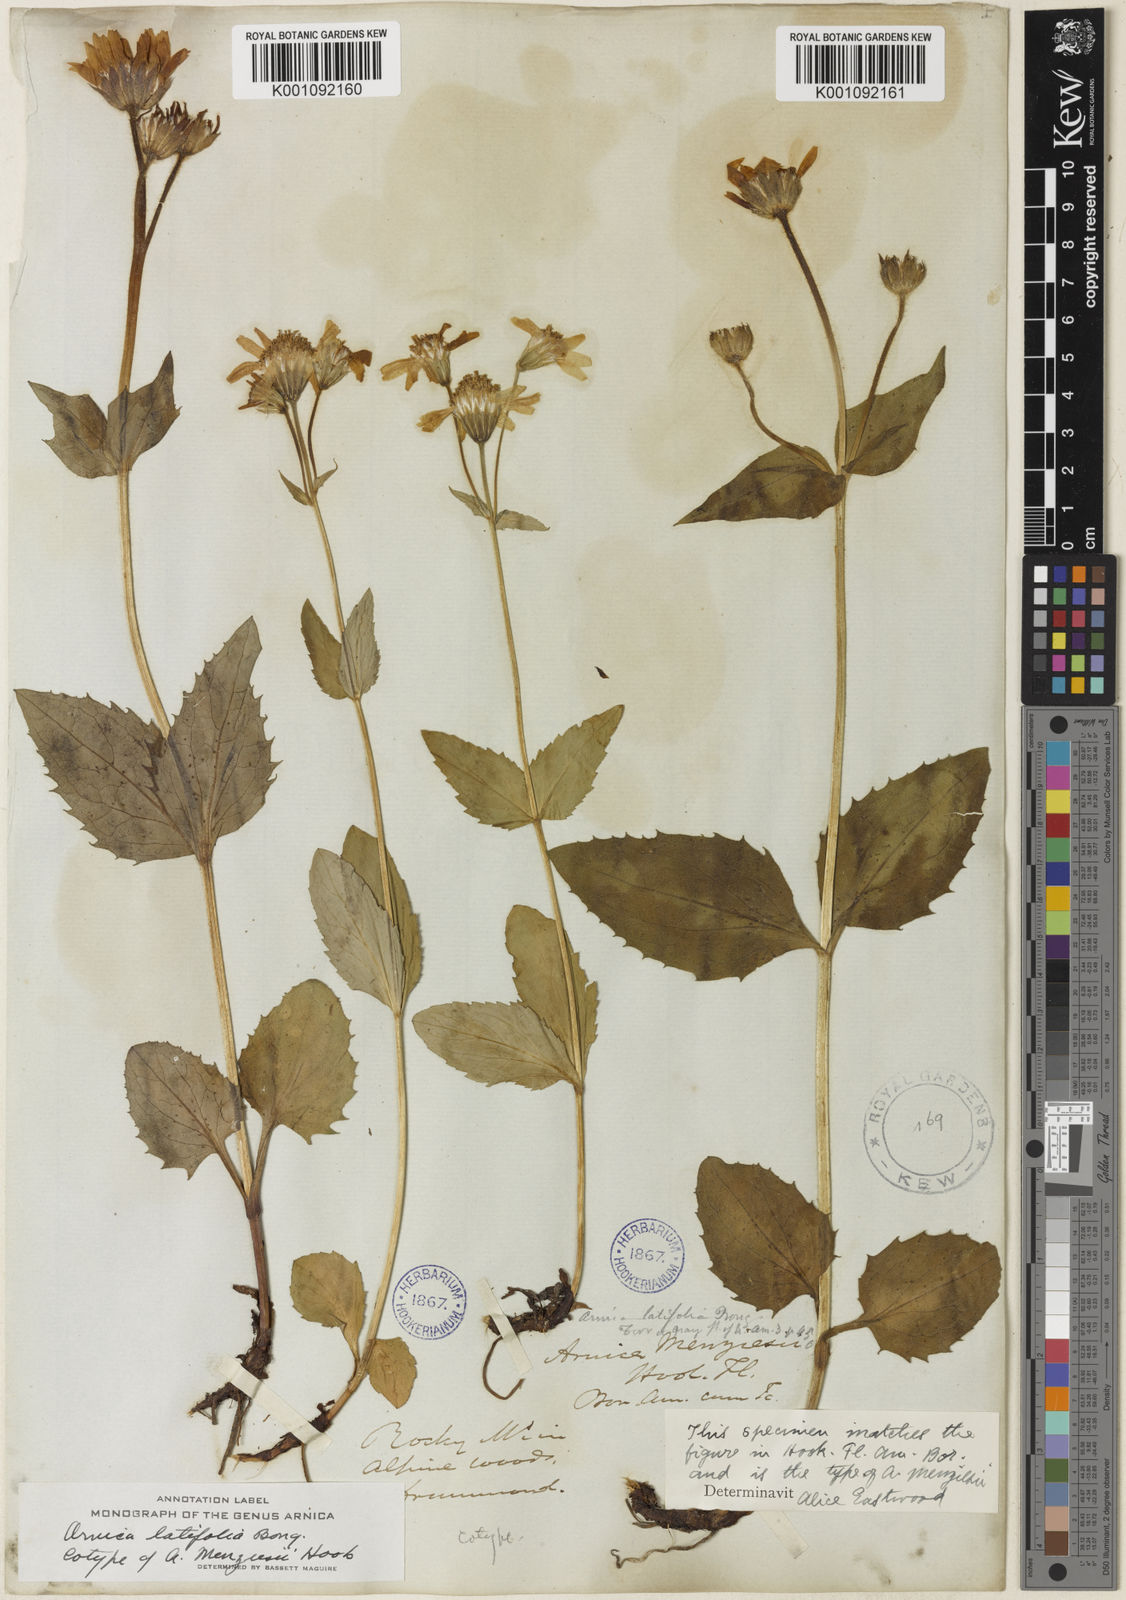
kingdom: Plantae
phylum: Tracheophyta
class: Magnoliopsida
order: Asterales
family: Asteraceae
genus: Arnica
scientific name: Arnica latifolia
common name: Arnica
